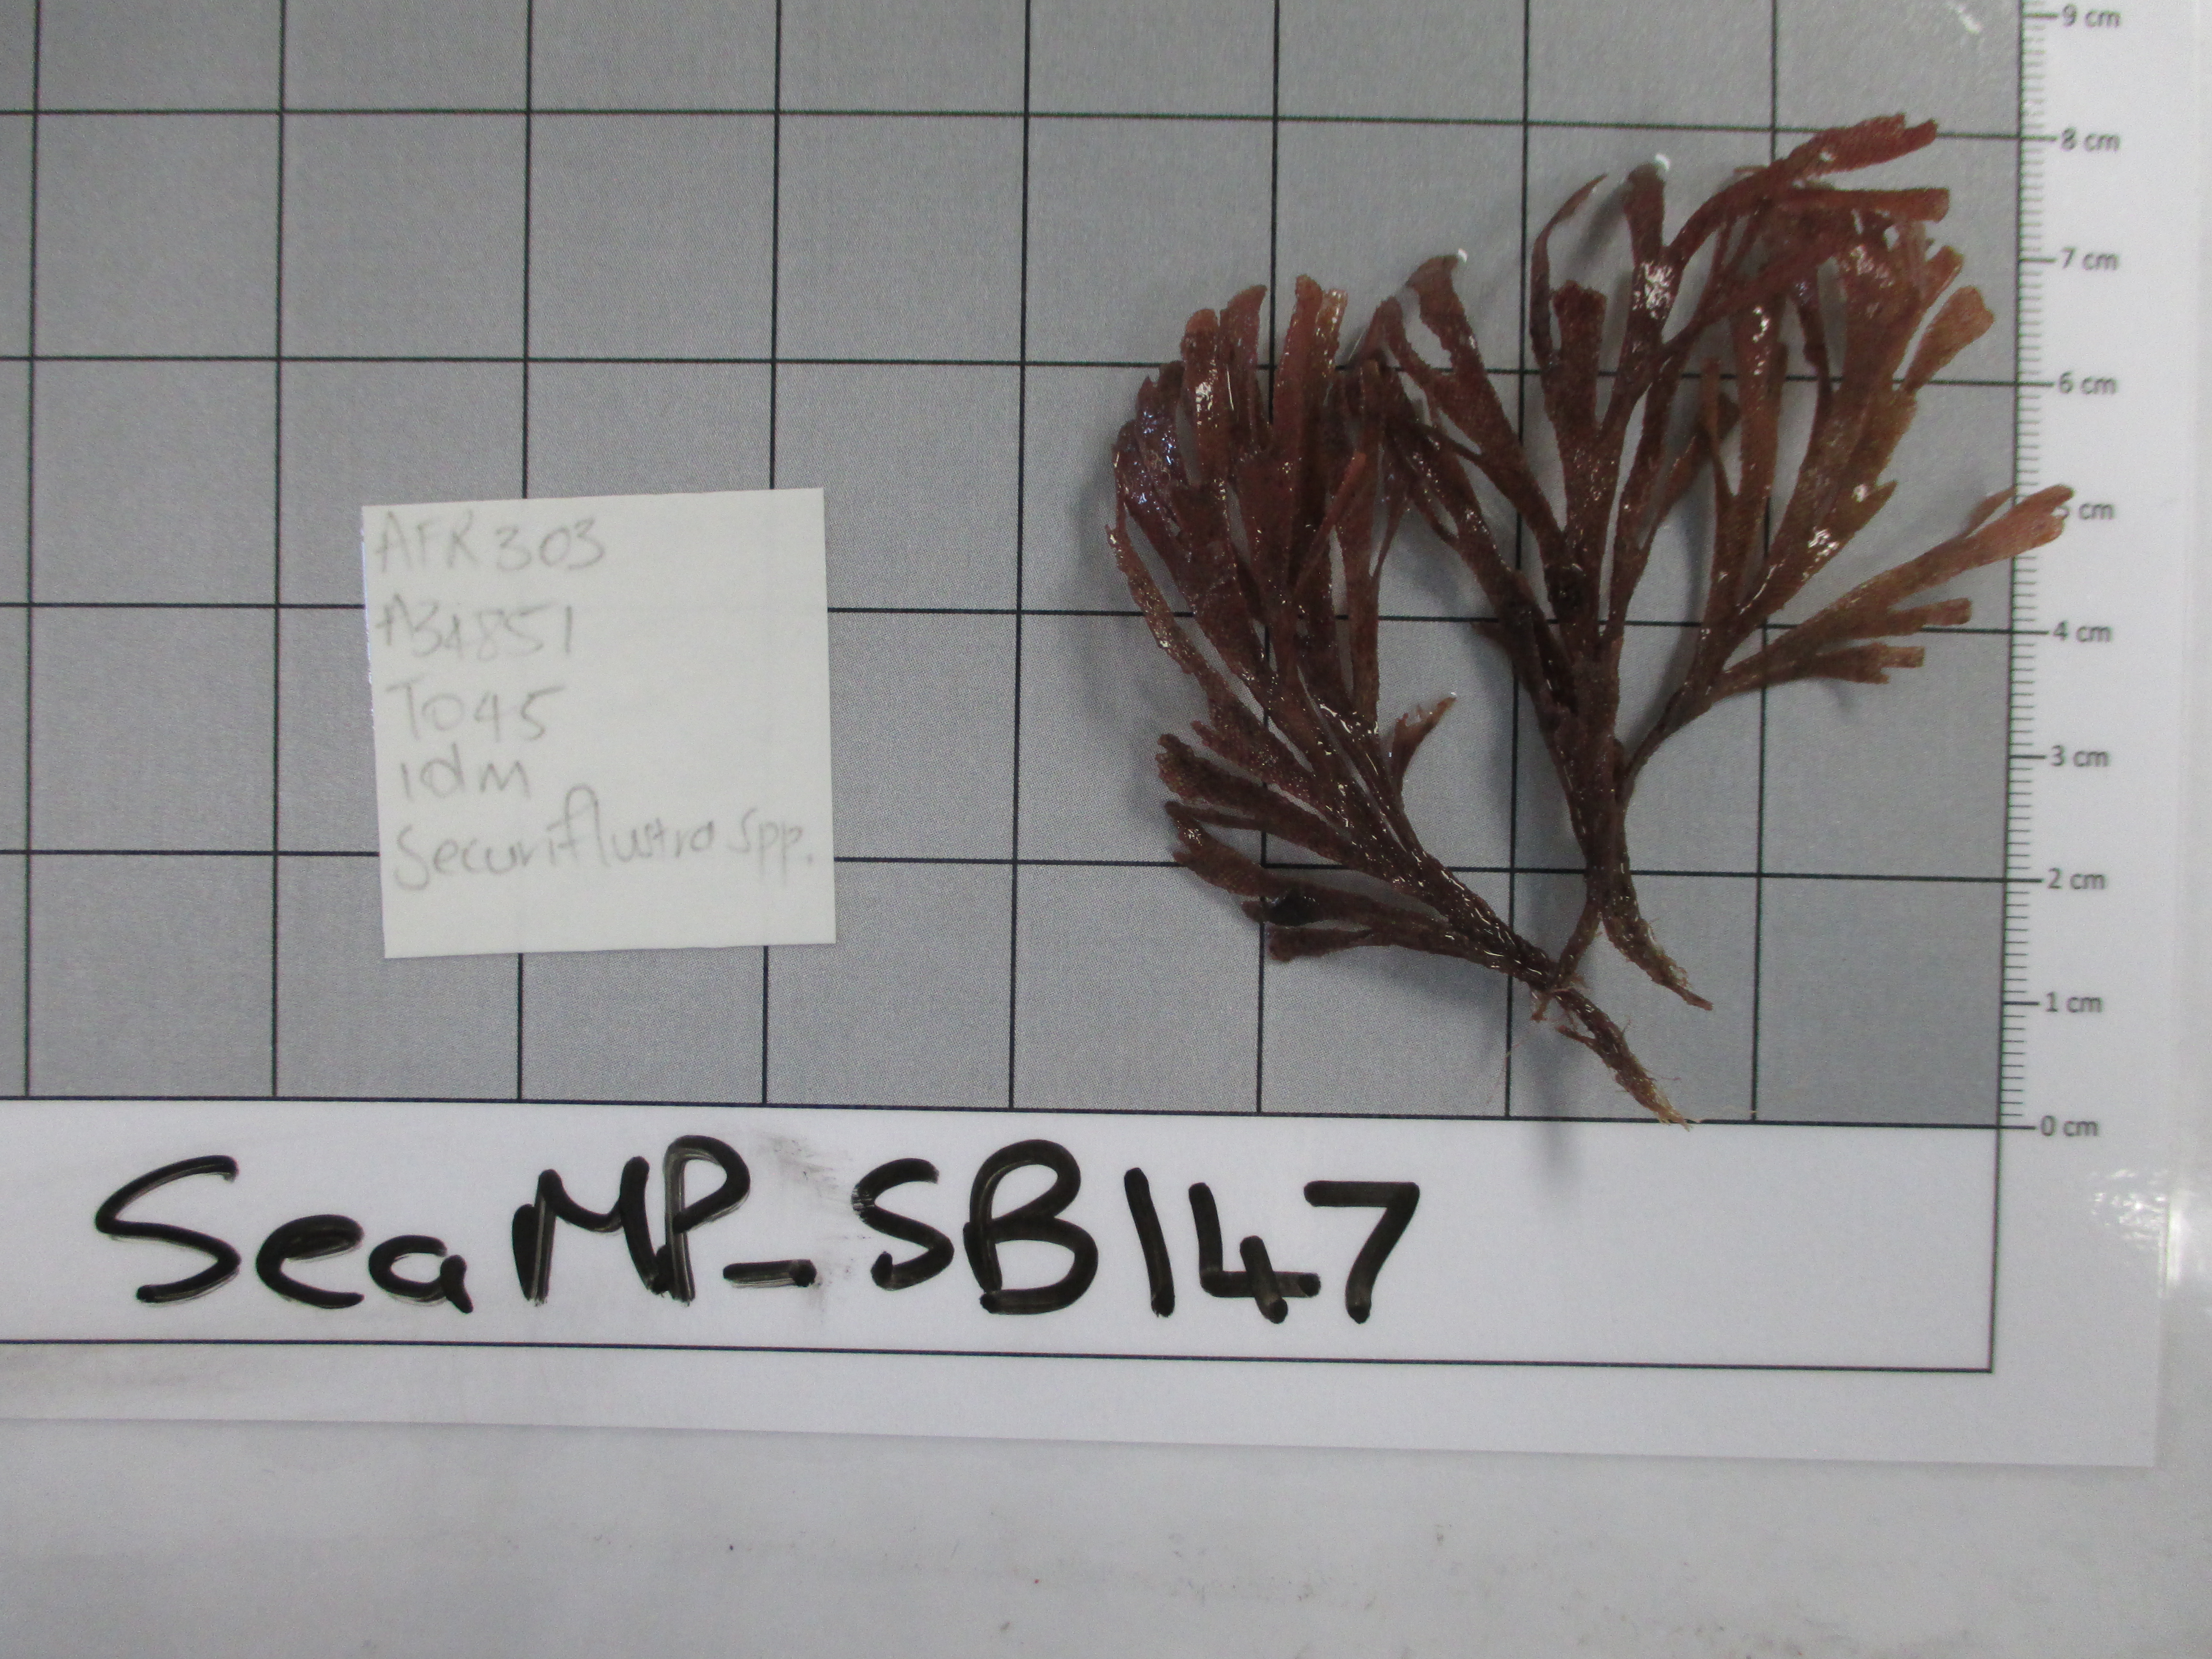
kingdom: Animalia
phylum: Bryozoa
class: Gymnolaemata
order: Cheilostomatida
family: Flustridae
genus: Securiflustra
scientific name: Securiflustra
